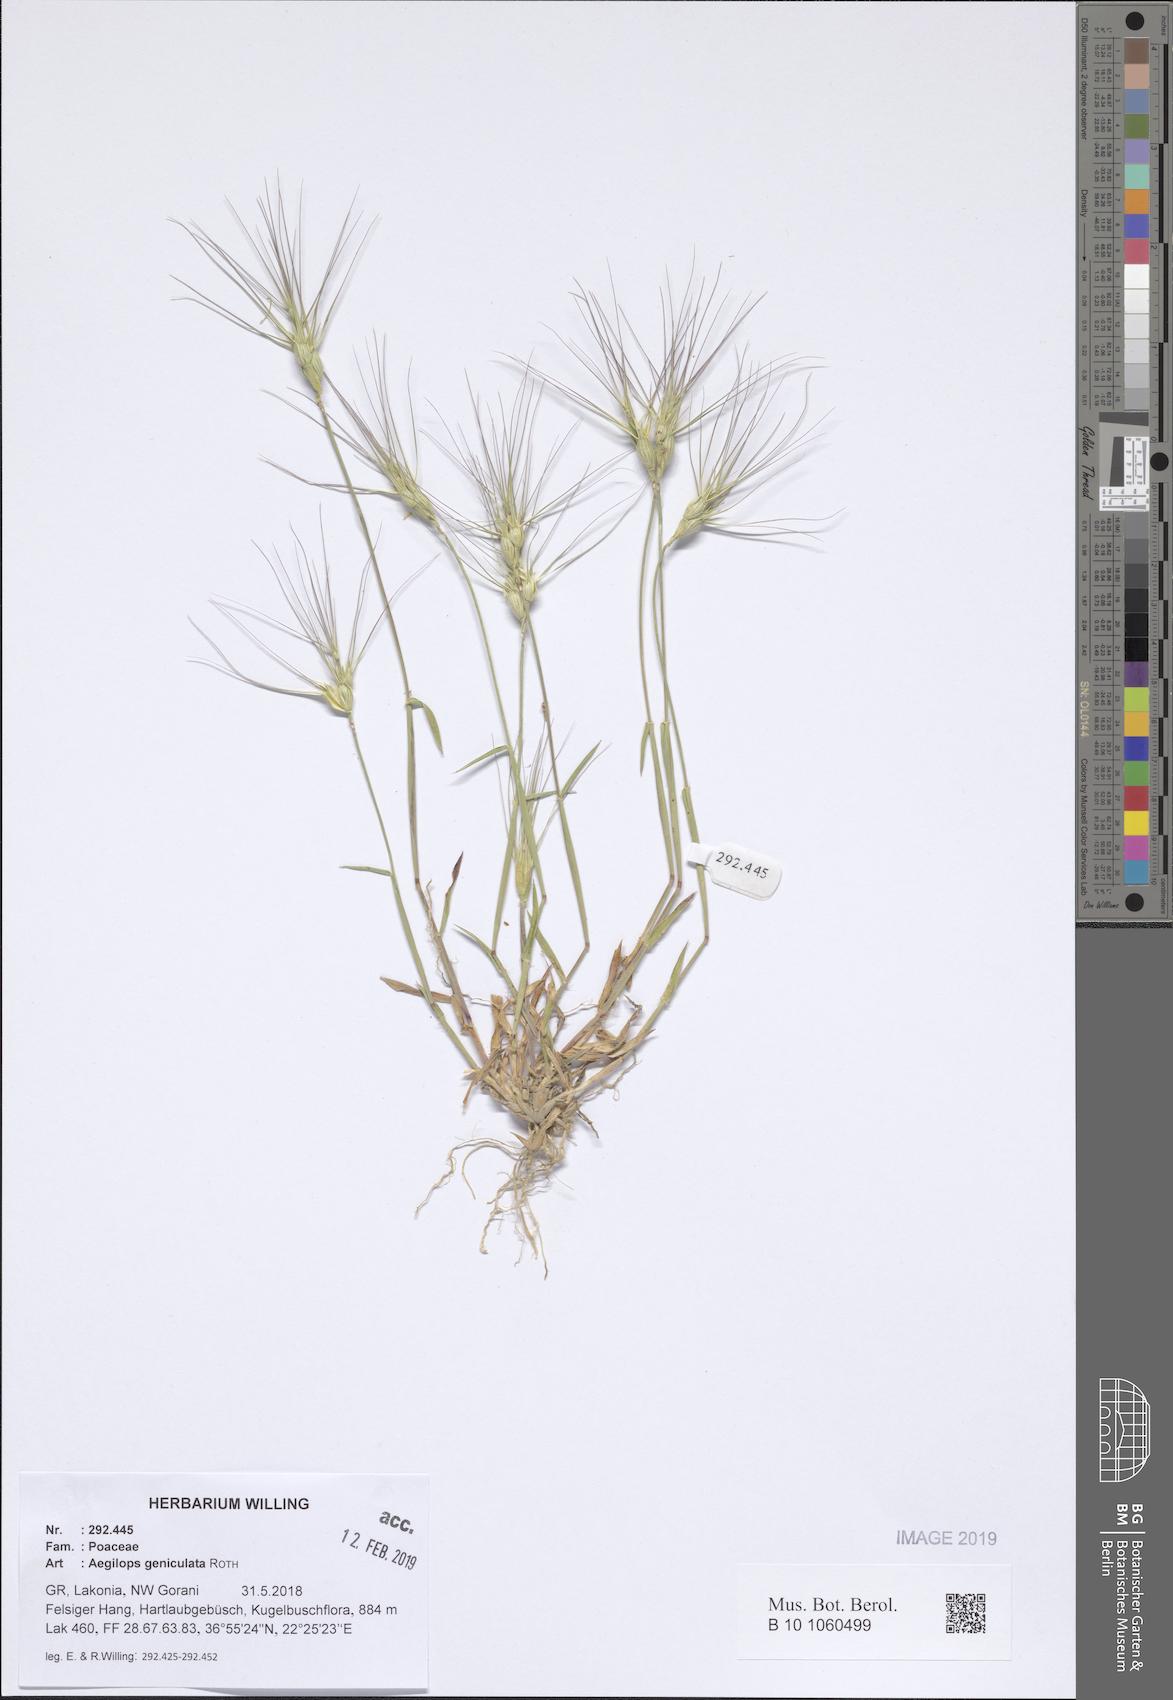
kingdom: Plantae
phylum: Tracheophyta
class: Liliopsida
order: Poales
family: Poaceae
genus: Aegilops
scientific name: Aegilops geniculata
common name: Ovate goat grass
